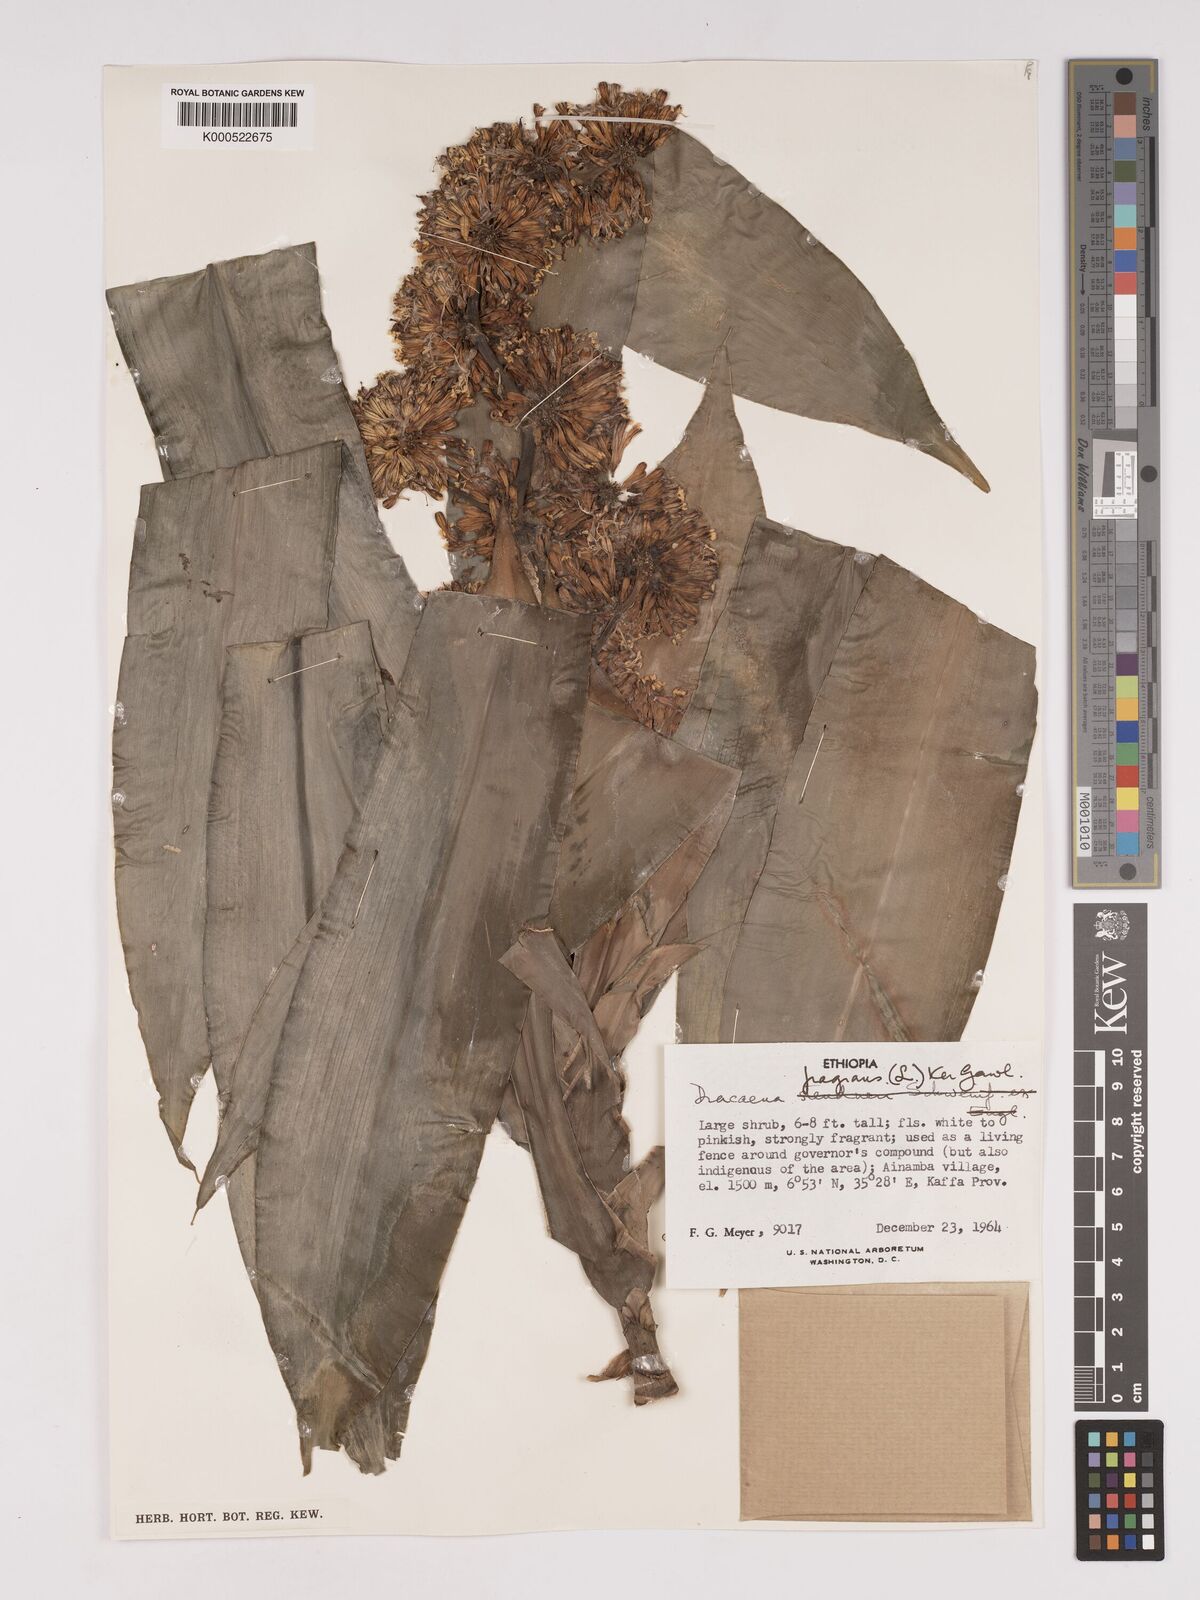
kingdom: Plantae
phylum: Tracheophyta
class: Liliopsida
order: Asparagales
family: Asparagaceae
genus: Dracaena
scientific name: Dracaena fragrans
